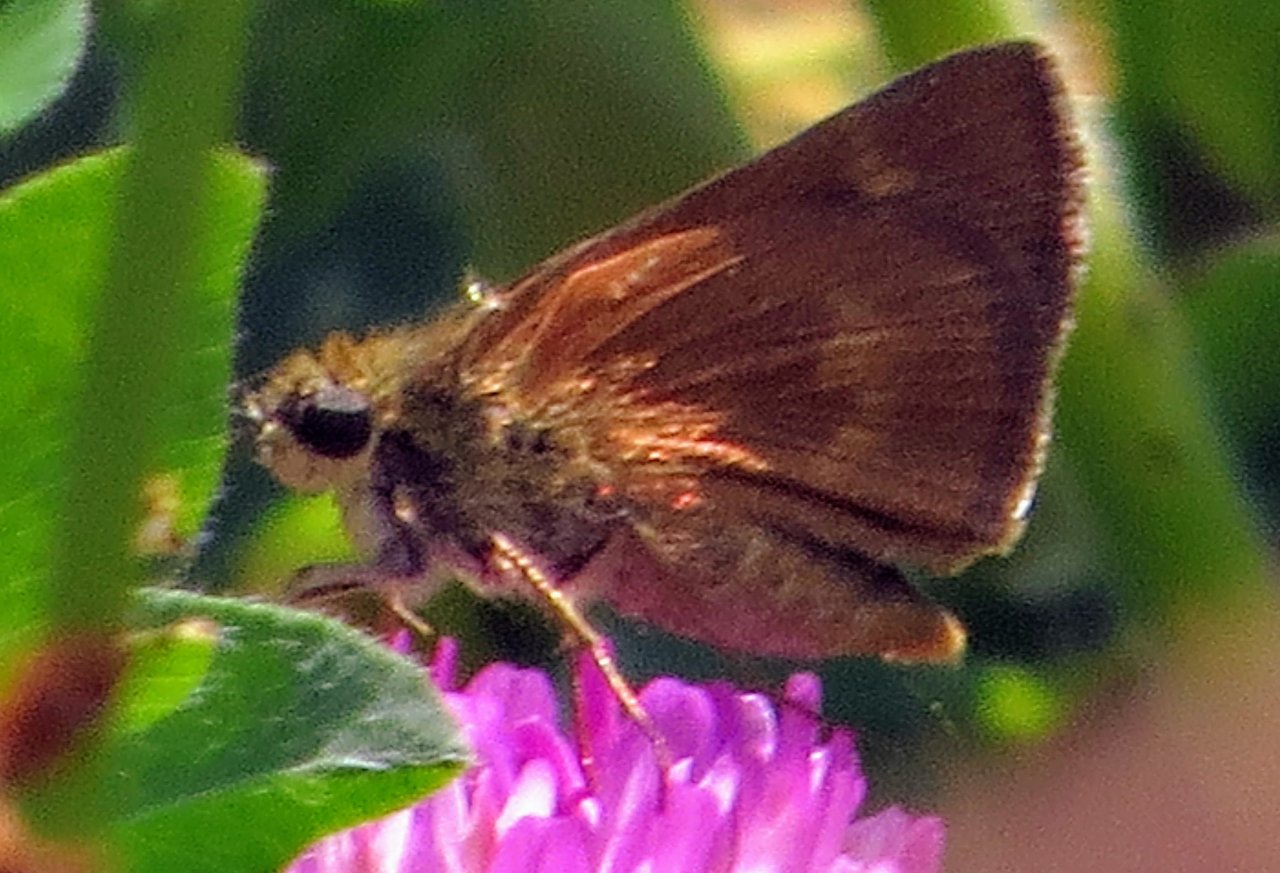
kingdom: Animalia
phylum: Arthropoda
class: Insecta
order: Lepidoptera
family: Hesperiidae
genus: Wallengrenia
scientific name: Wallengrenia otho
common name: Southern Broken-Dash
